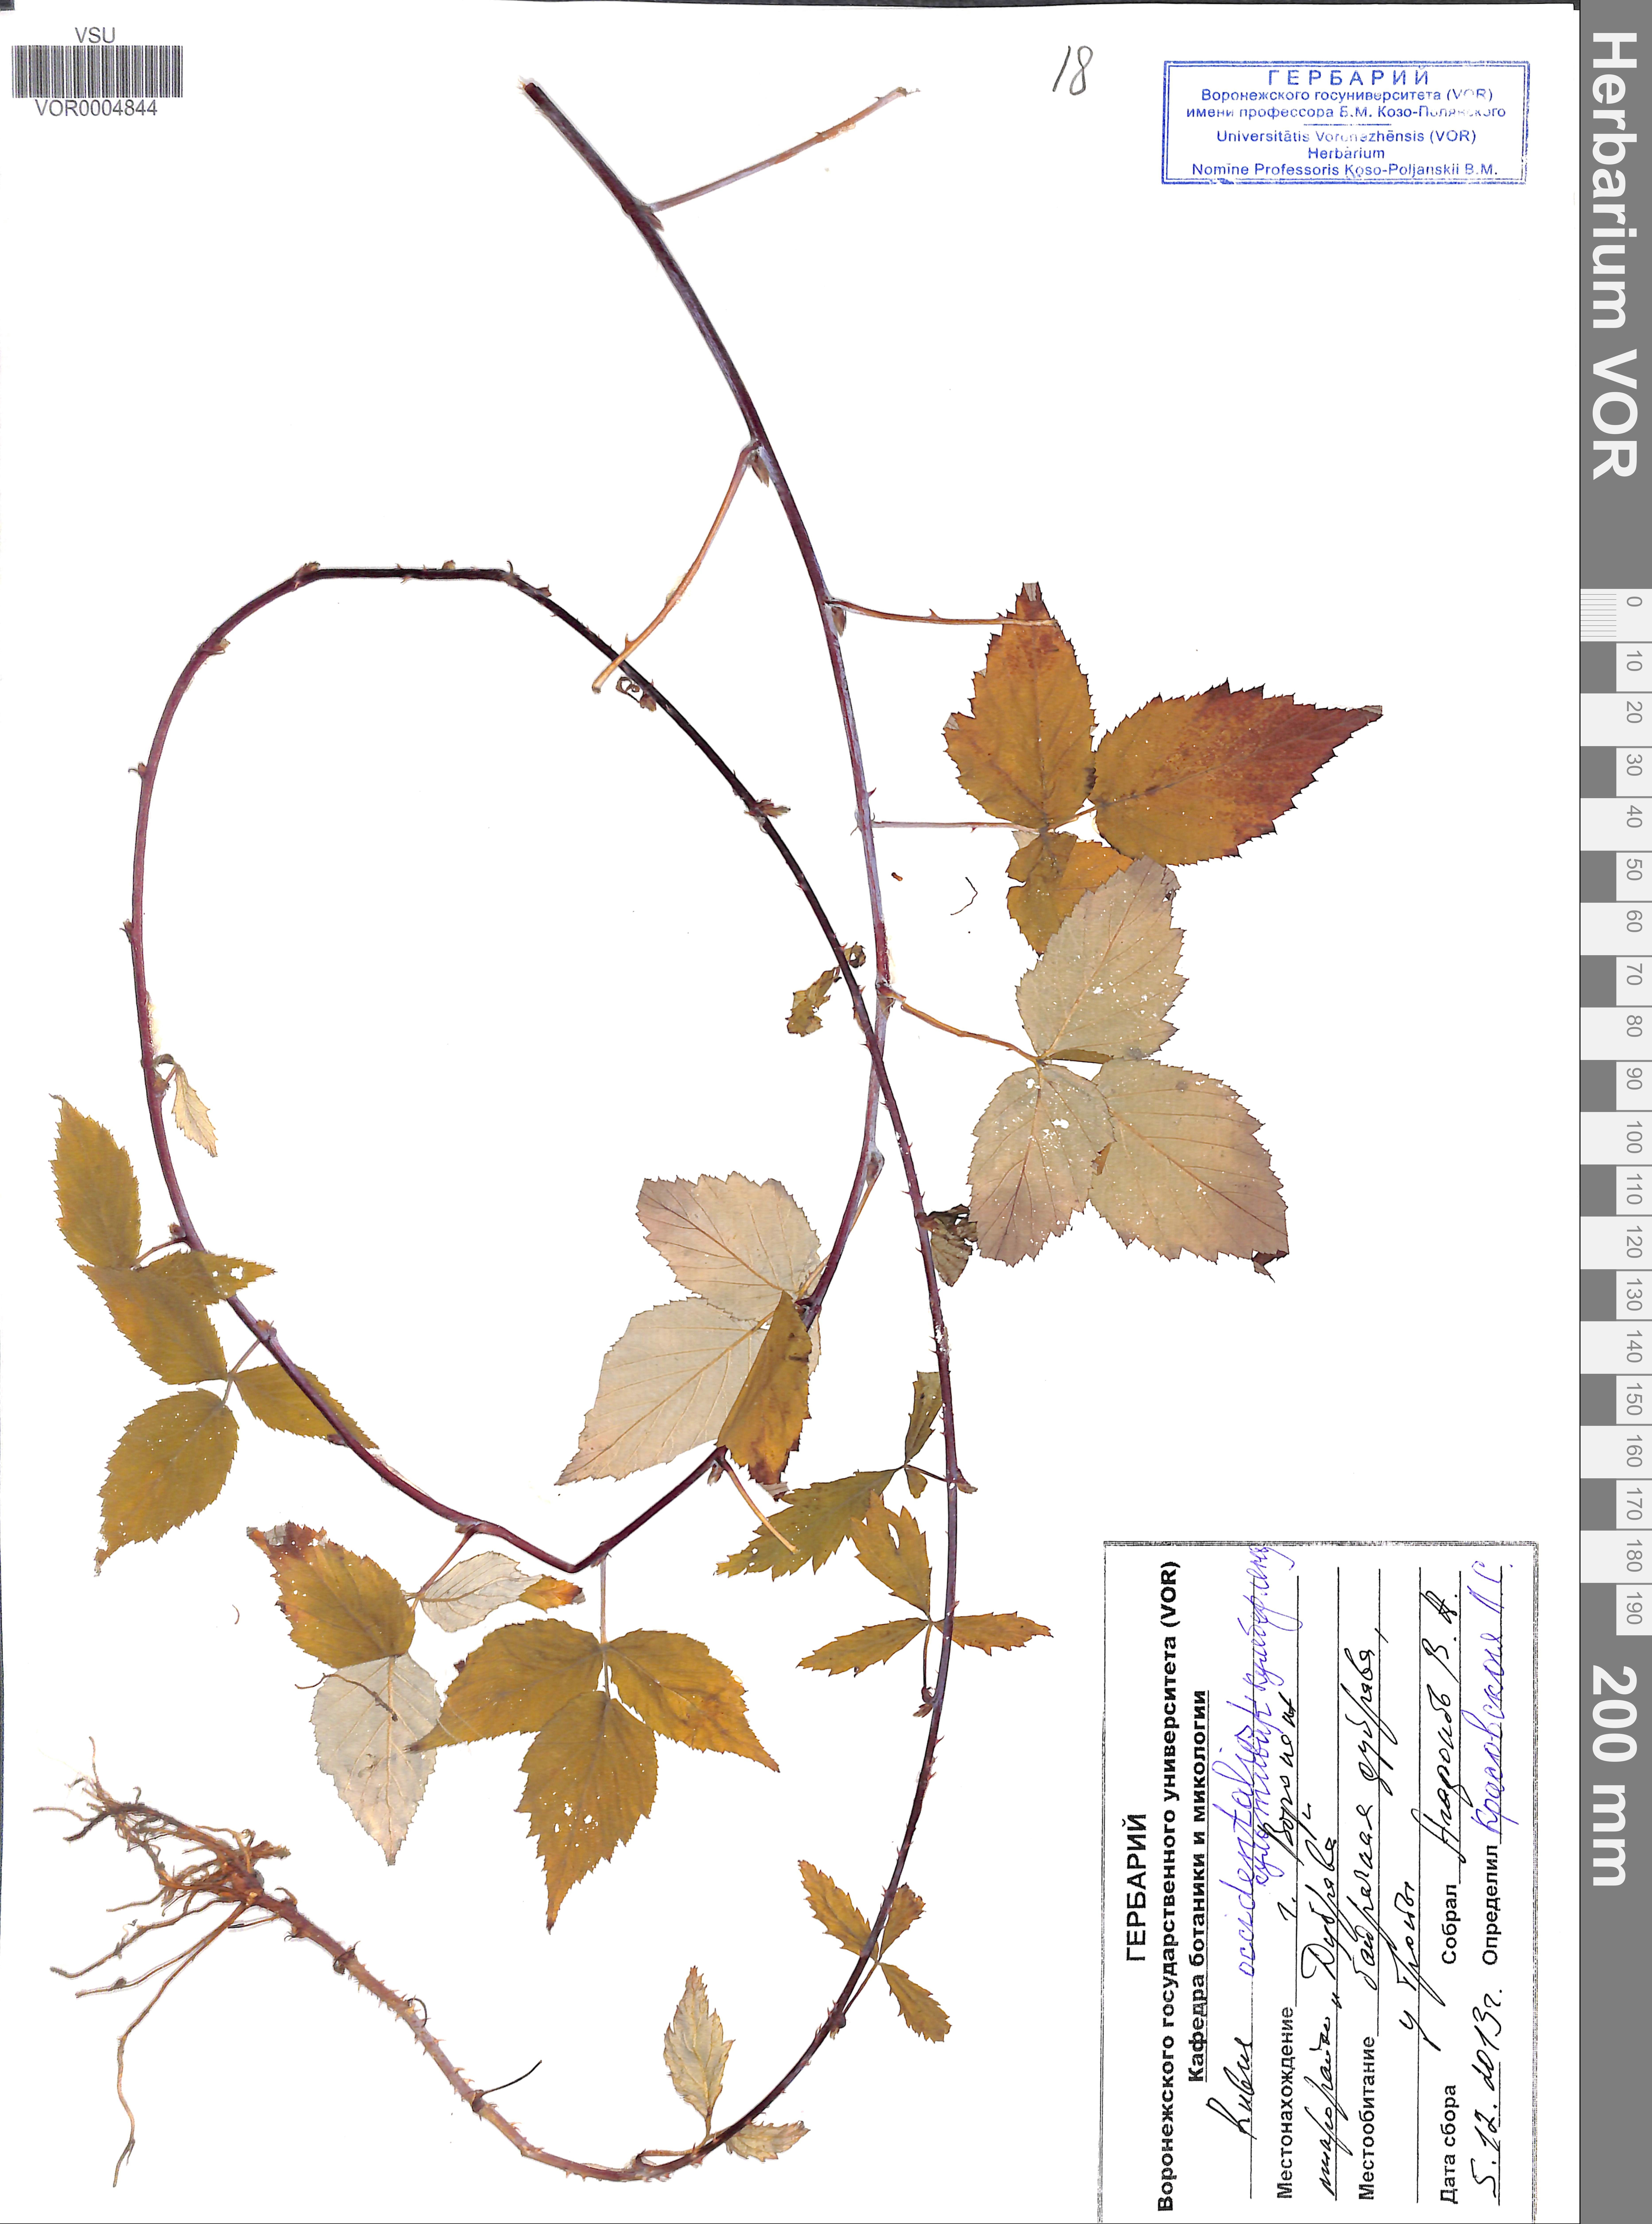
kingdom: Plantae
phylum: Tracheophyta
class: Magnoliopsida
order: Rosales
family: Rosaceae
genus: Rubus
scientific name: Rubus occidentalis
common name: Black raspberry
